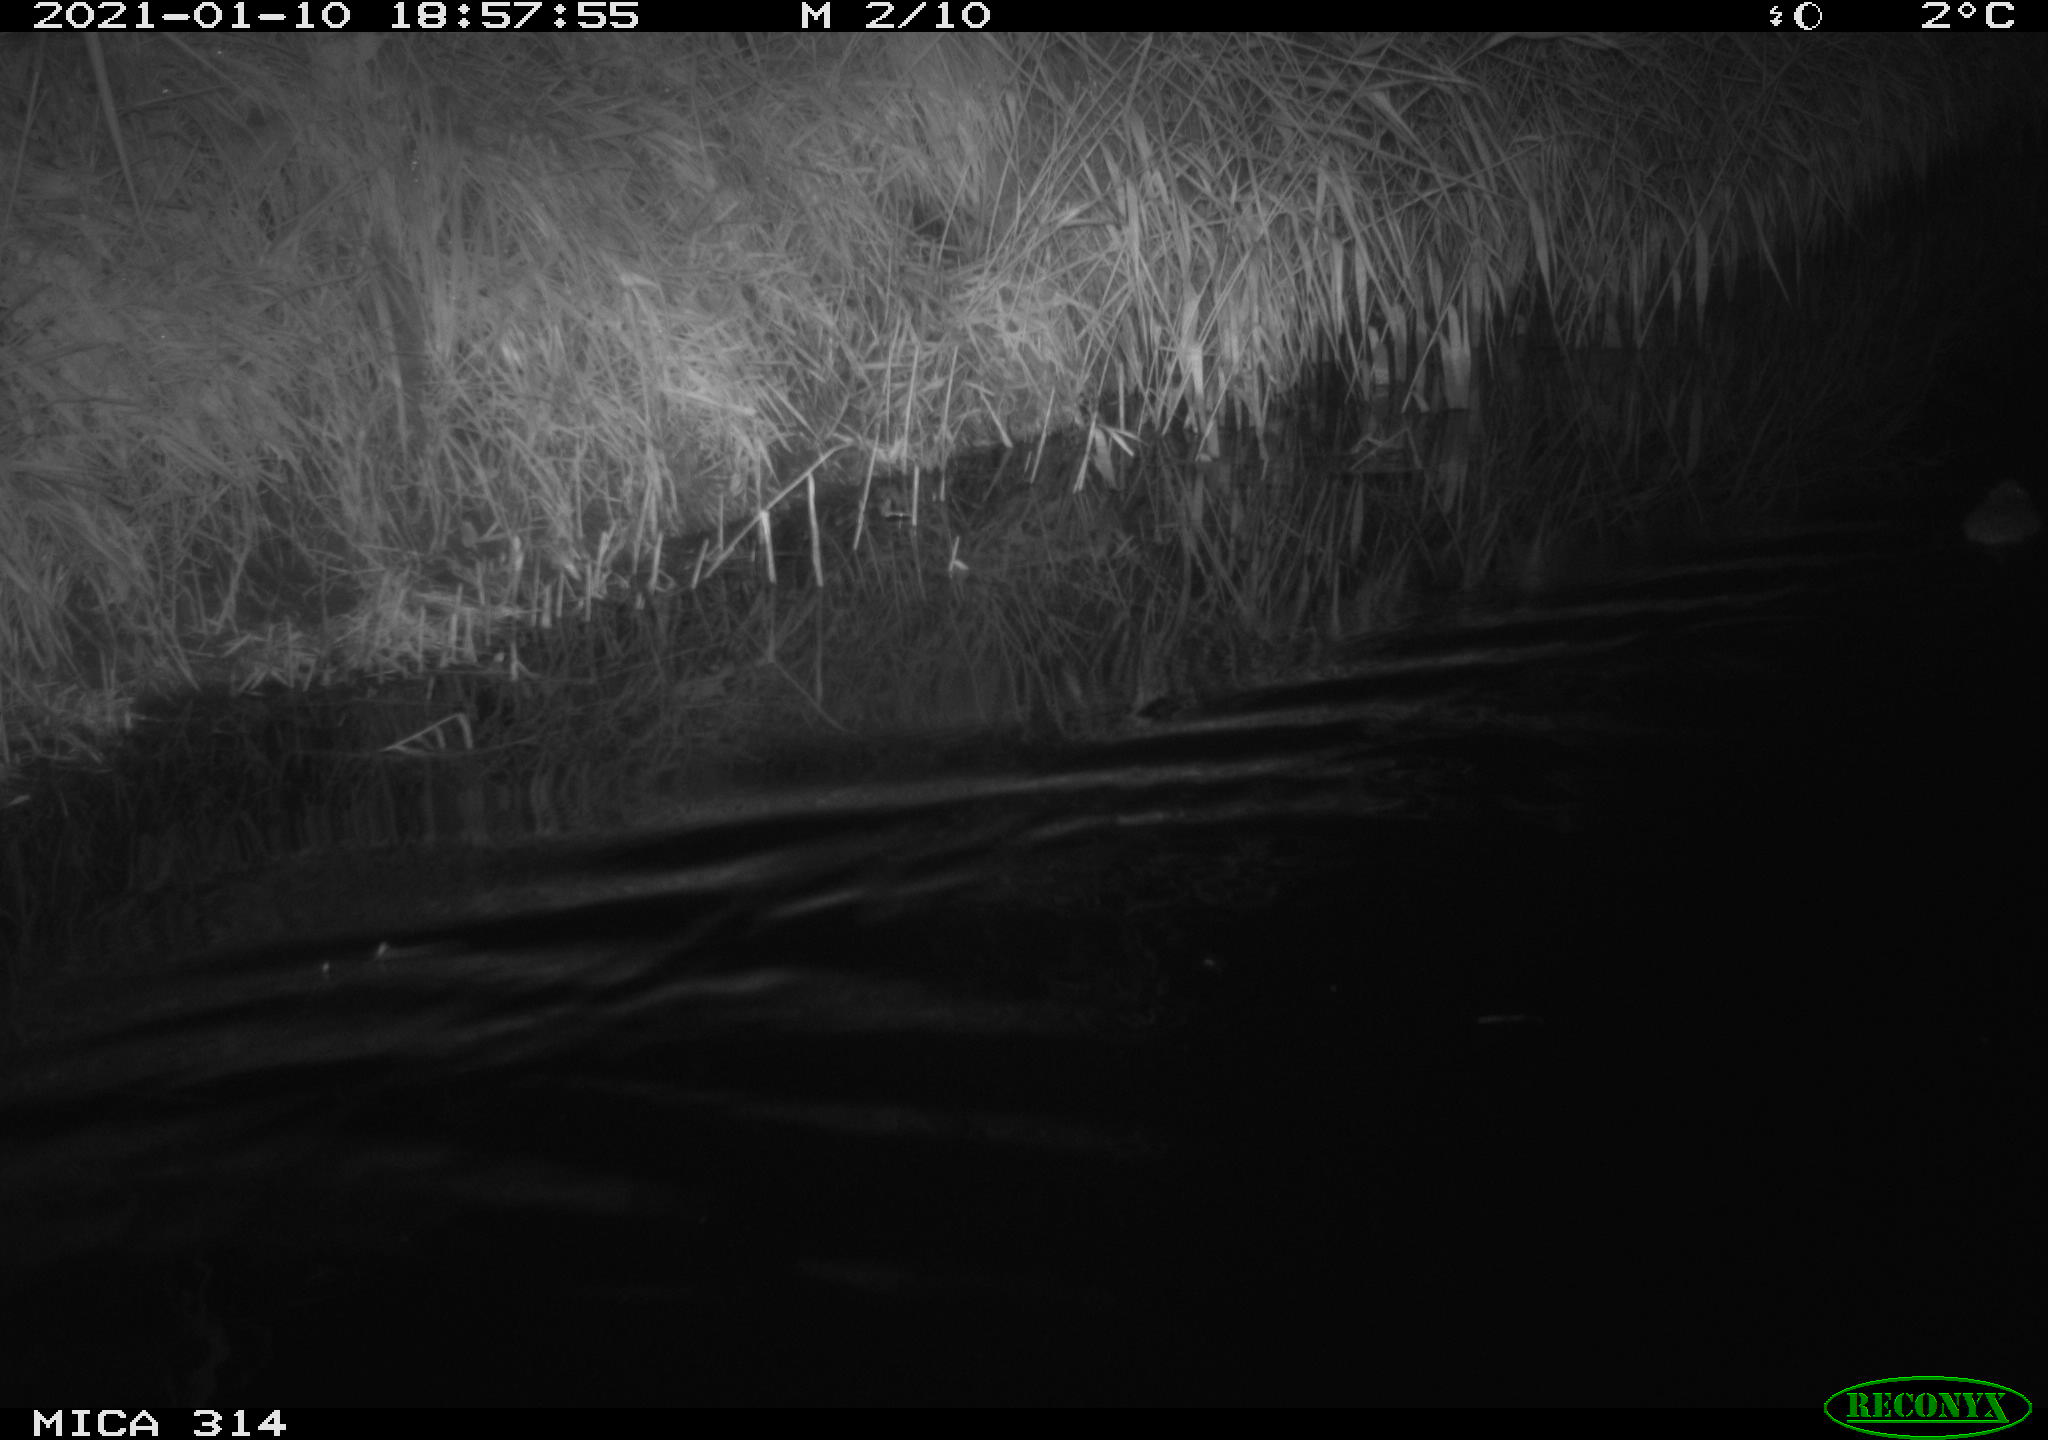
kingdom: Animalia
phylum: Chordata
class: Mammalia
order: Rodentia
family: Muridae
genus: Rattus
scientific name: Rattus norvegicus
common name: Brown rat
